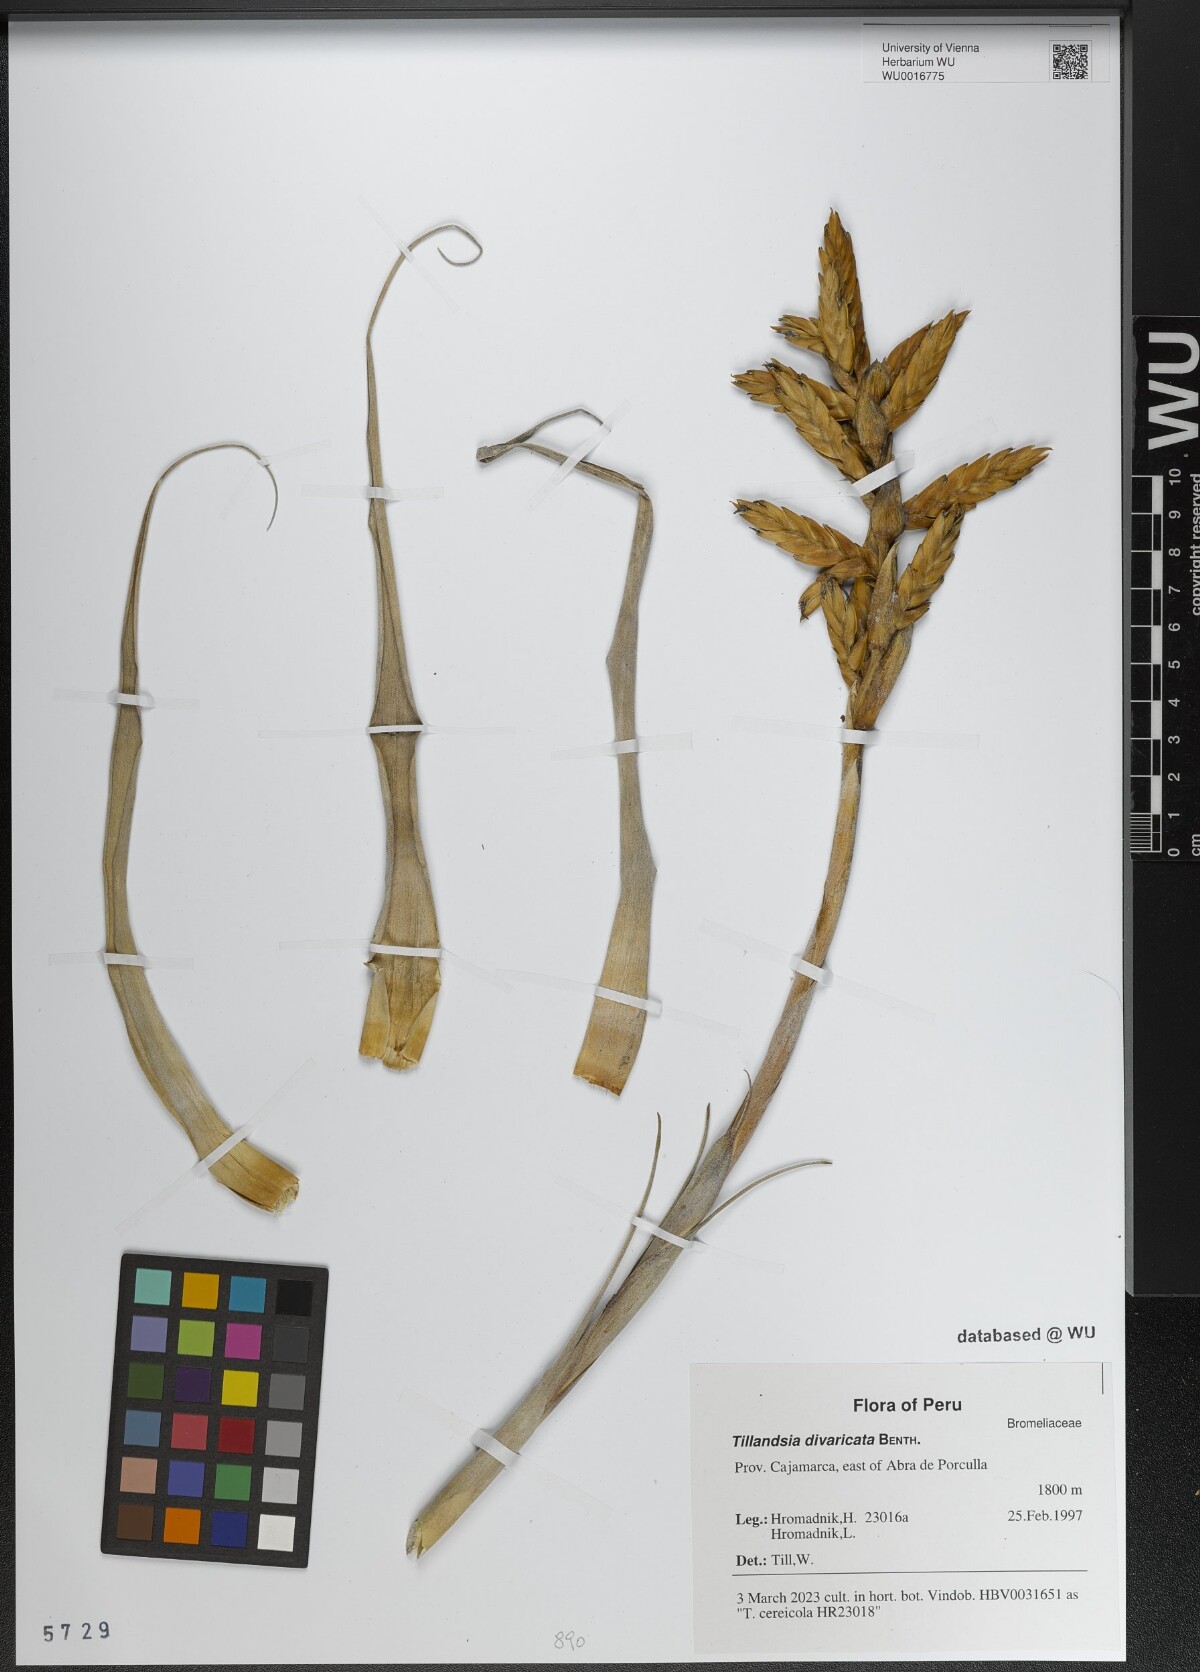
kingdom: Plantae
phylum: Tracheophyta
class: Liliopsida
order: Poales
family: Bromeliaceae
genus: Tillandsia
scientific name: Tillandsia latifolia
